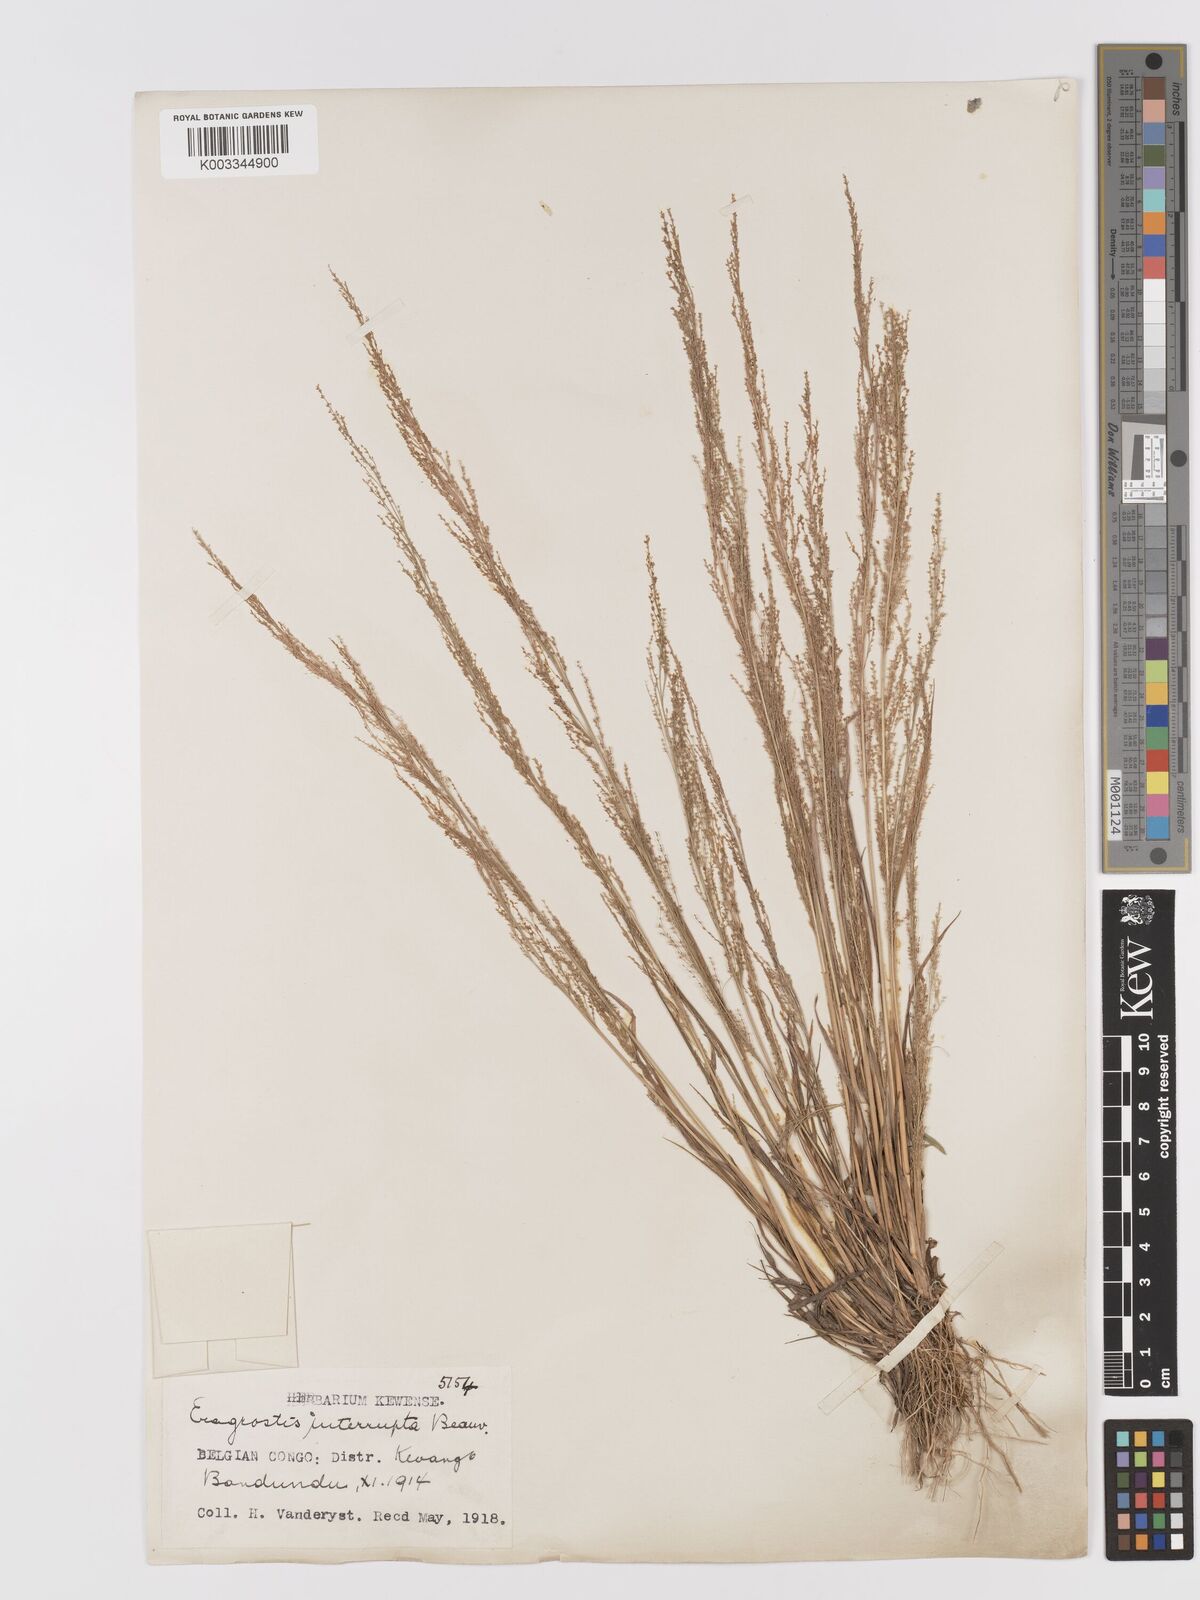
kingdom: Plantae
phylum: Tracheophyta
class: Liliopsida
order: Poales
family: Poaceae
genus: Eragrostis
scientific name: Eragrostis japonica
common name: Pond lovegrass
